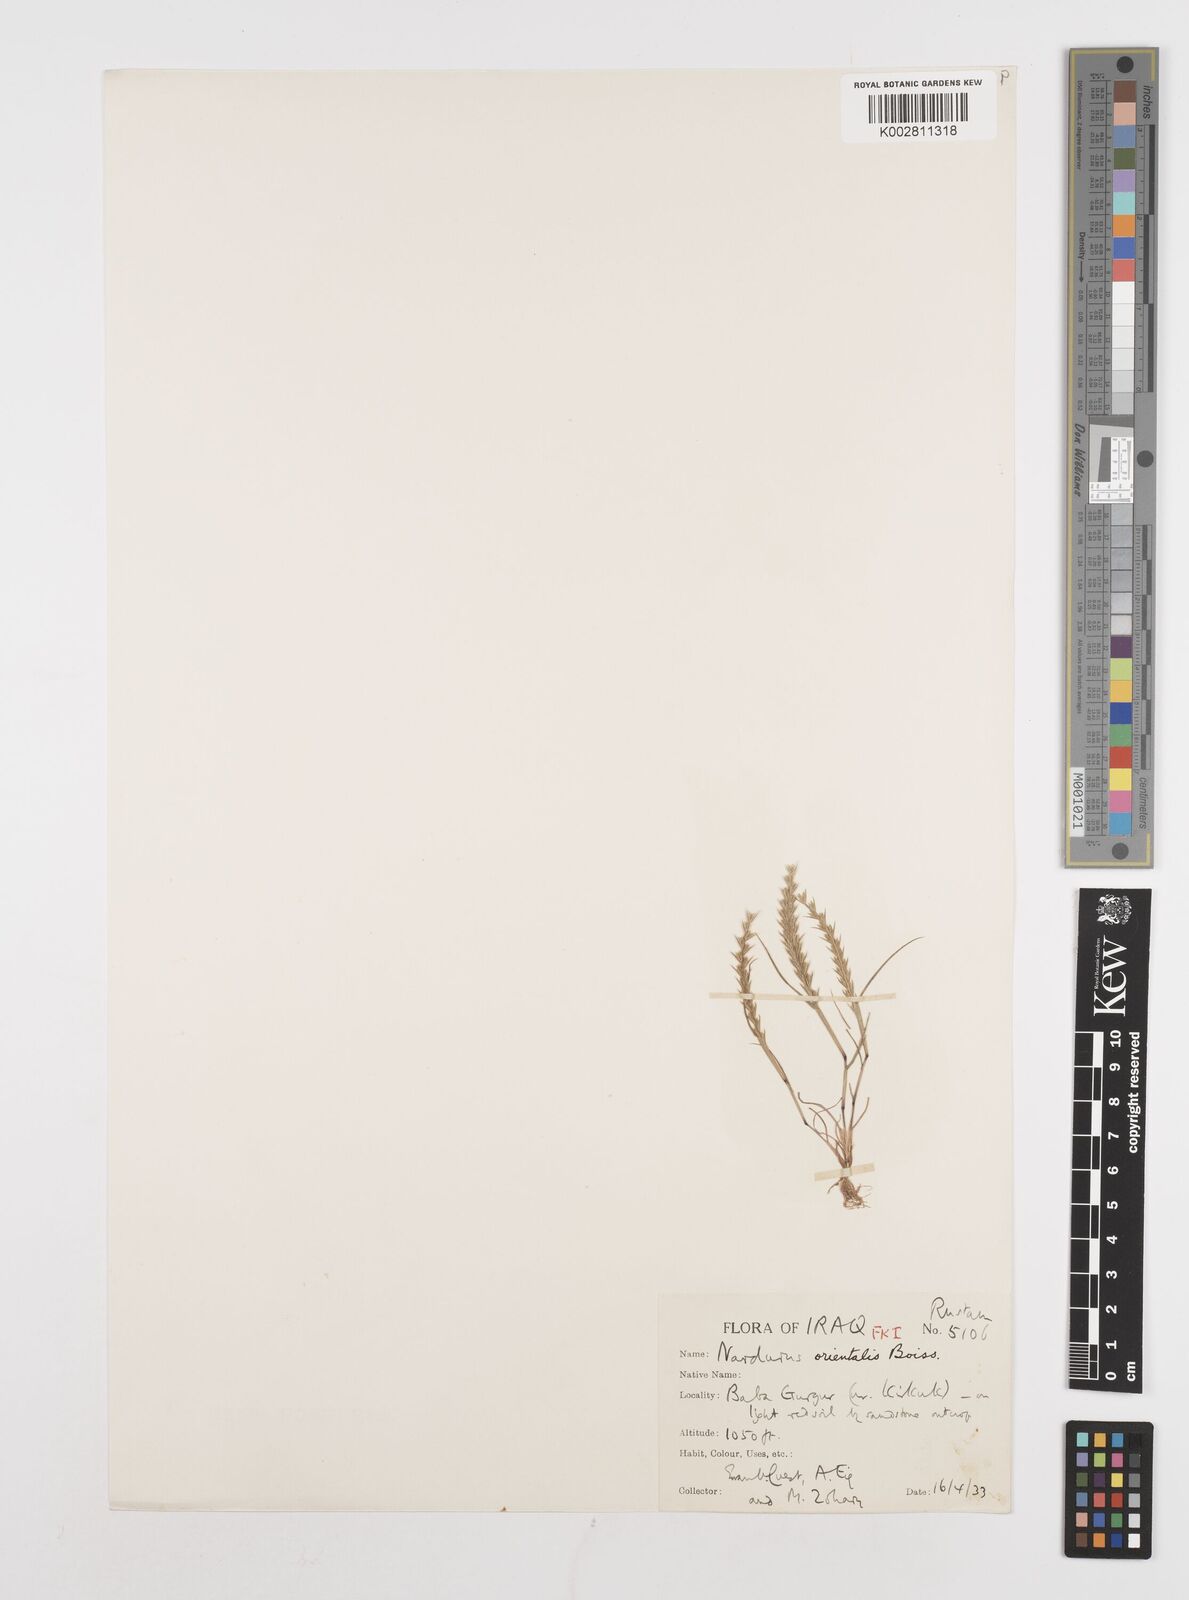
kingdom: Plantae
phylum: Tracheophyta
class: Liliopsida
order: Poales
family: Poaceae
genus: Festuca
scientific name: Festuca orientalis
